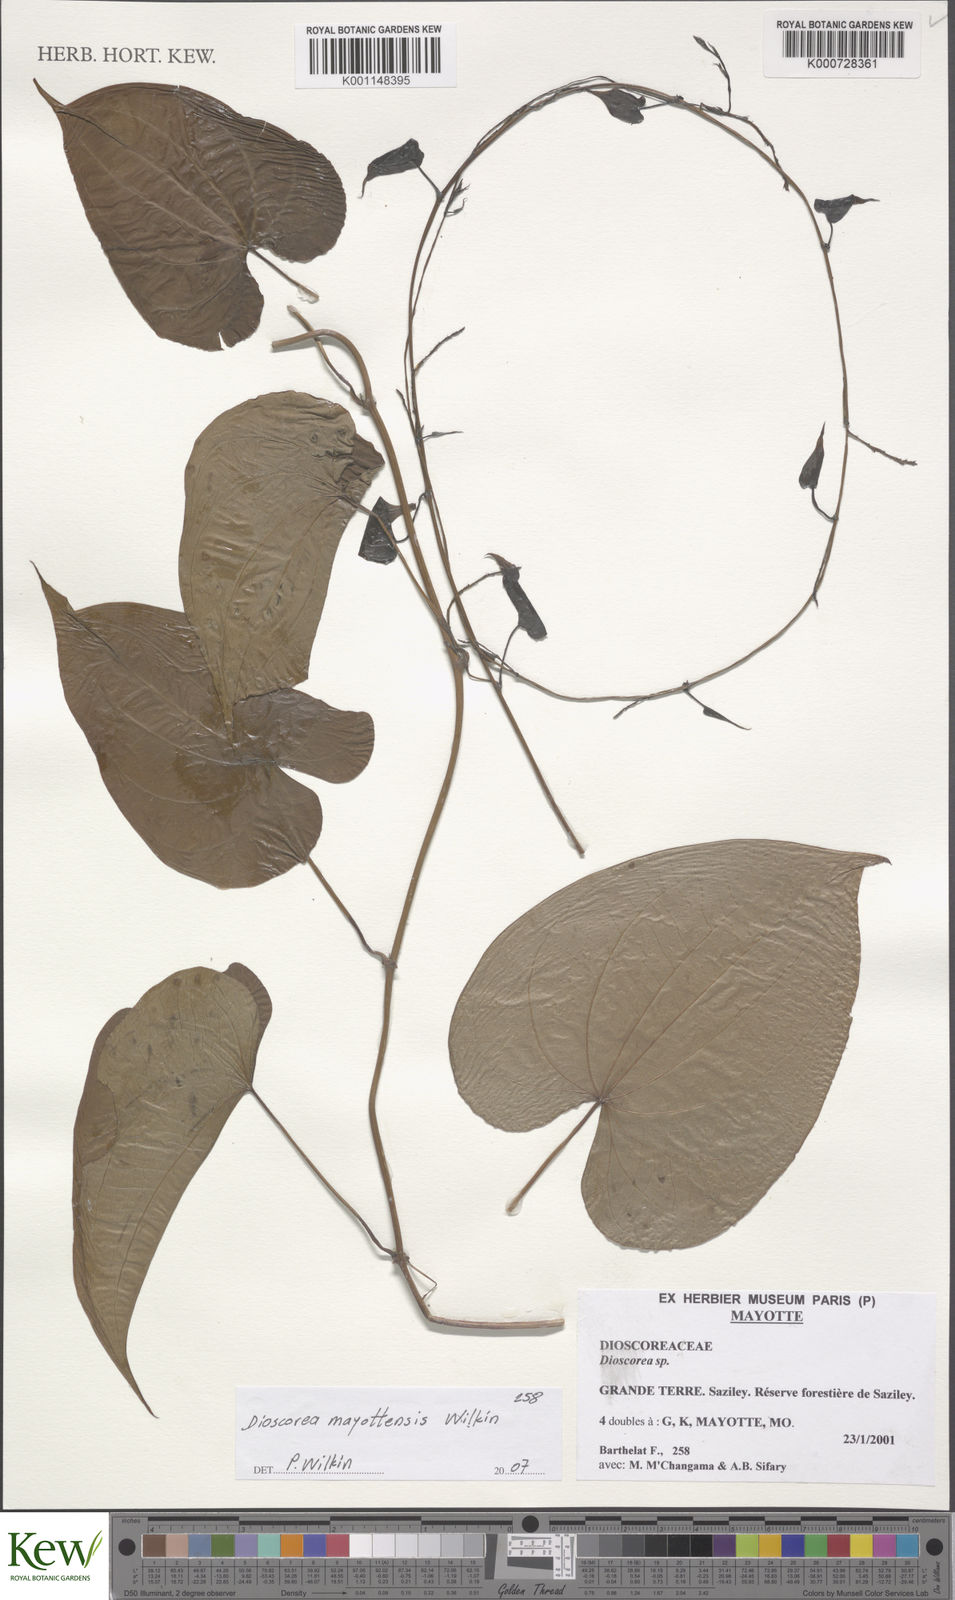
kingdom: Plantae
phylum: Tracheophyta
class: Liliopsida
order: Dioscoreales
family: Dioscoreaceae
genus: Dioscorea
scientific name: Dioscorea mayottensis
